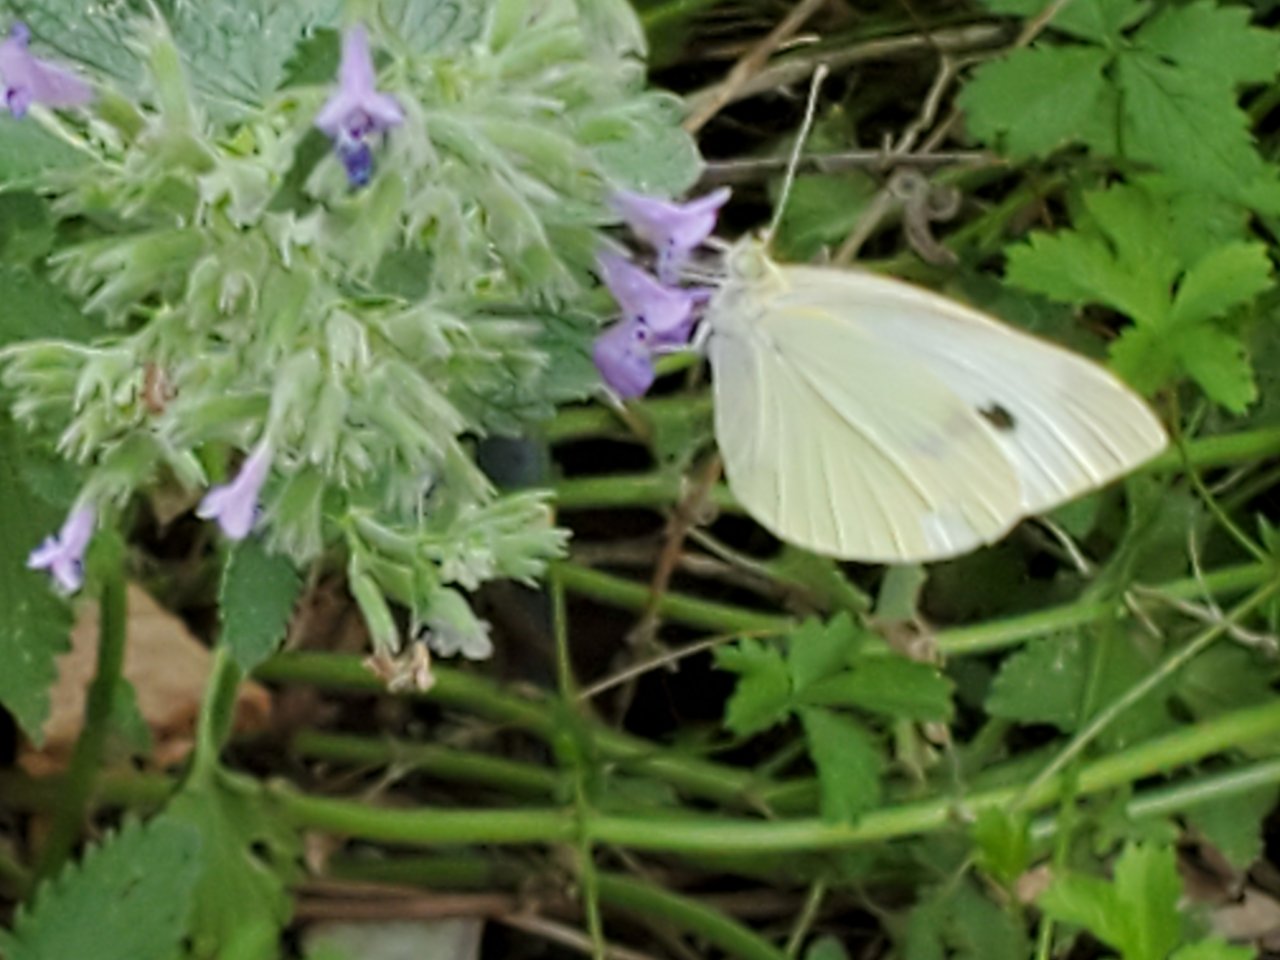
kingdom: Animalia
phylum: Arthropoda
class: Insecta
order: Lepidoptera
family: Pieridae
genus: Pieris
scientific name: Pieris rapae
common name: Cabbage White
